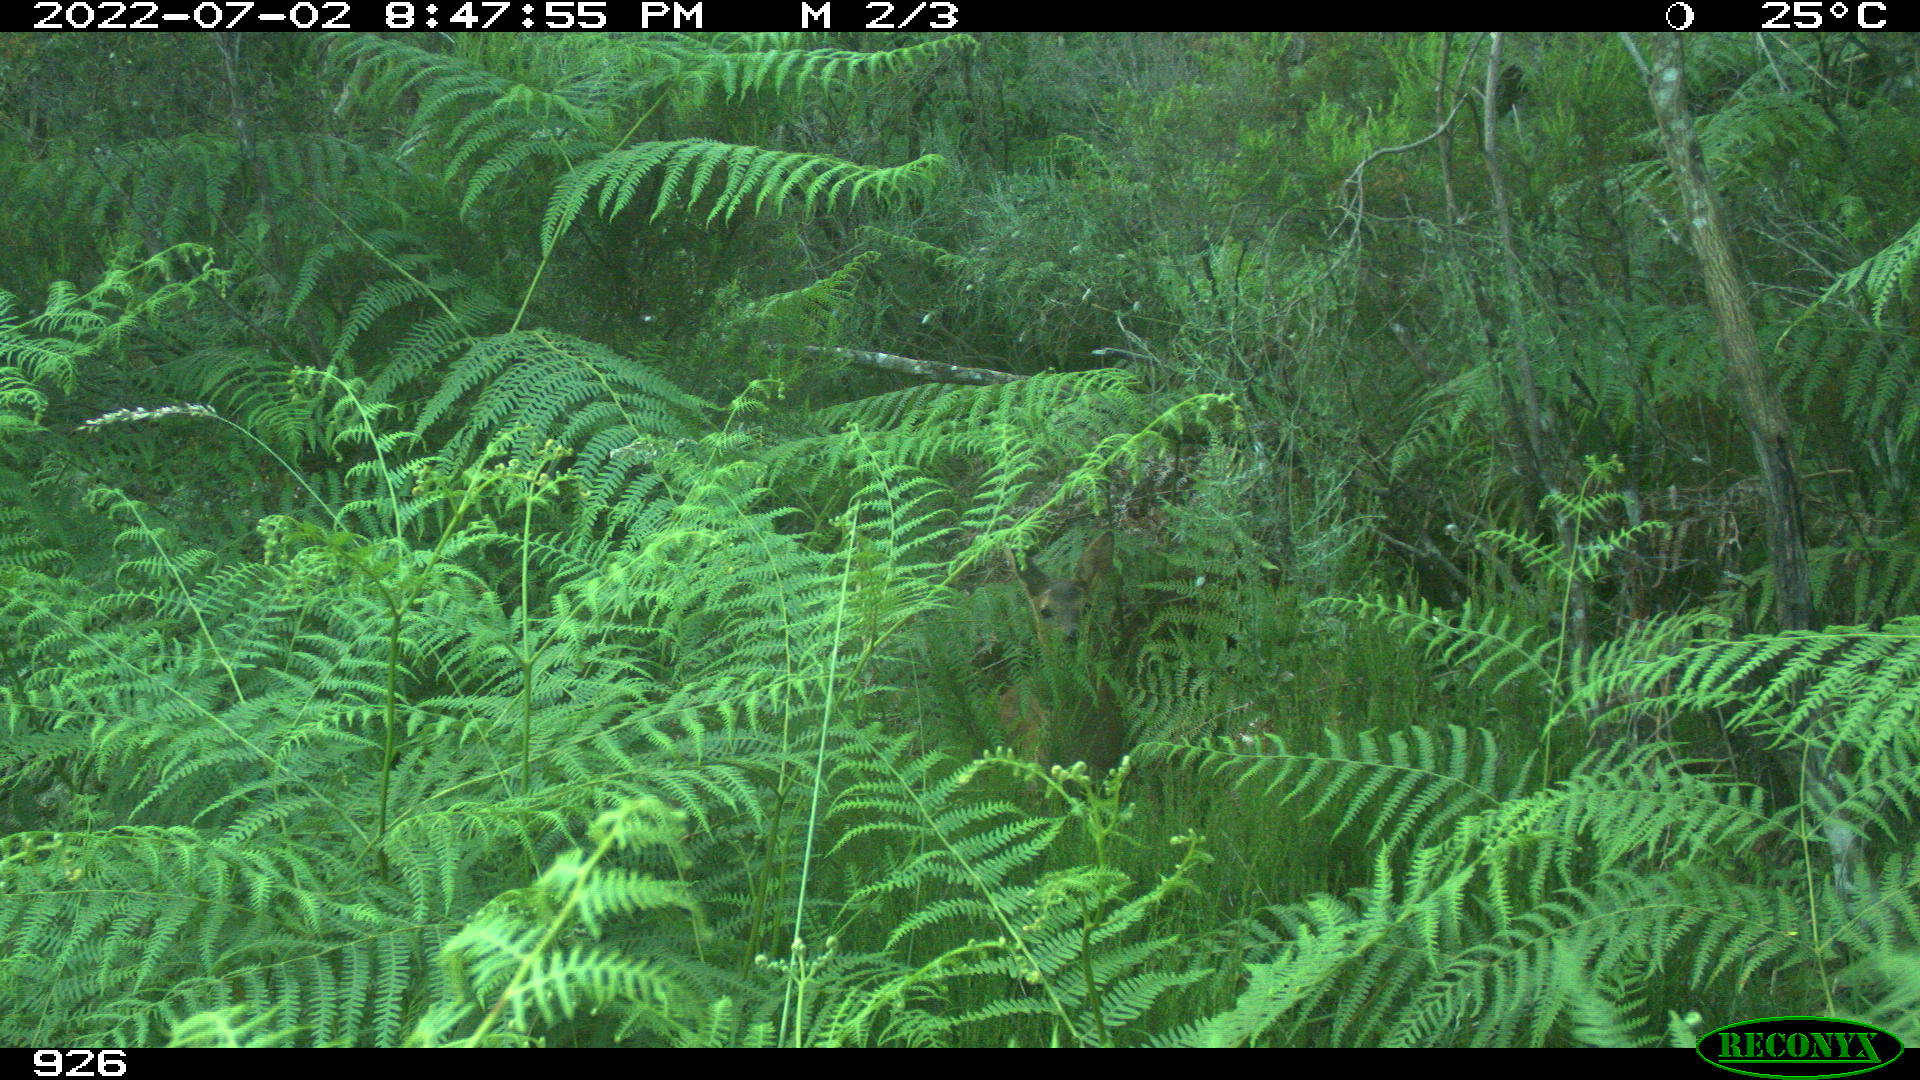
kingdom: Animalia
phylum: Chordata
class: Mammalia
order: Artiodactyla
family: Cervidae
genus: Capreolus
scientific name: Capreolus capreolus
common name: Western roe deer
